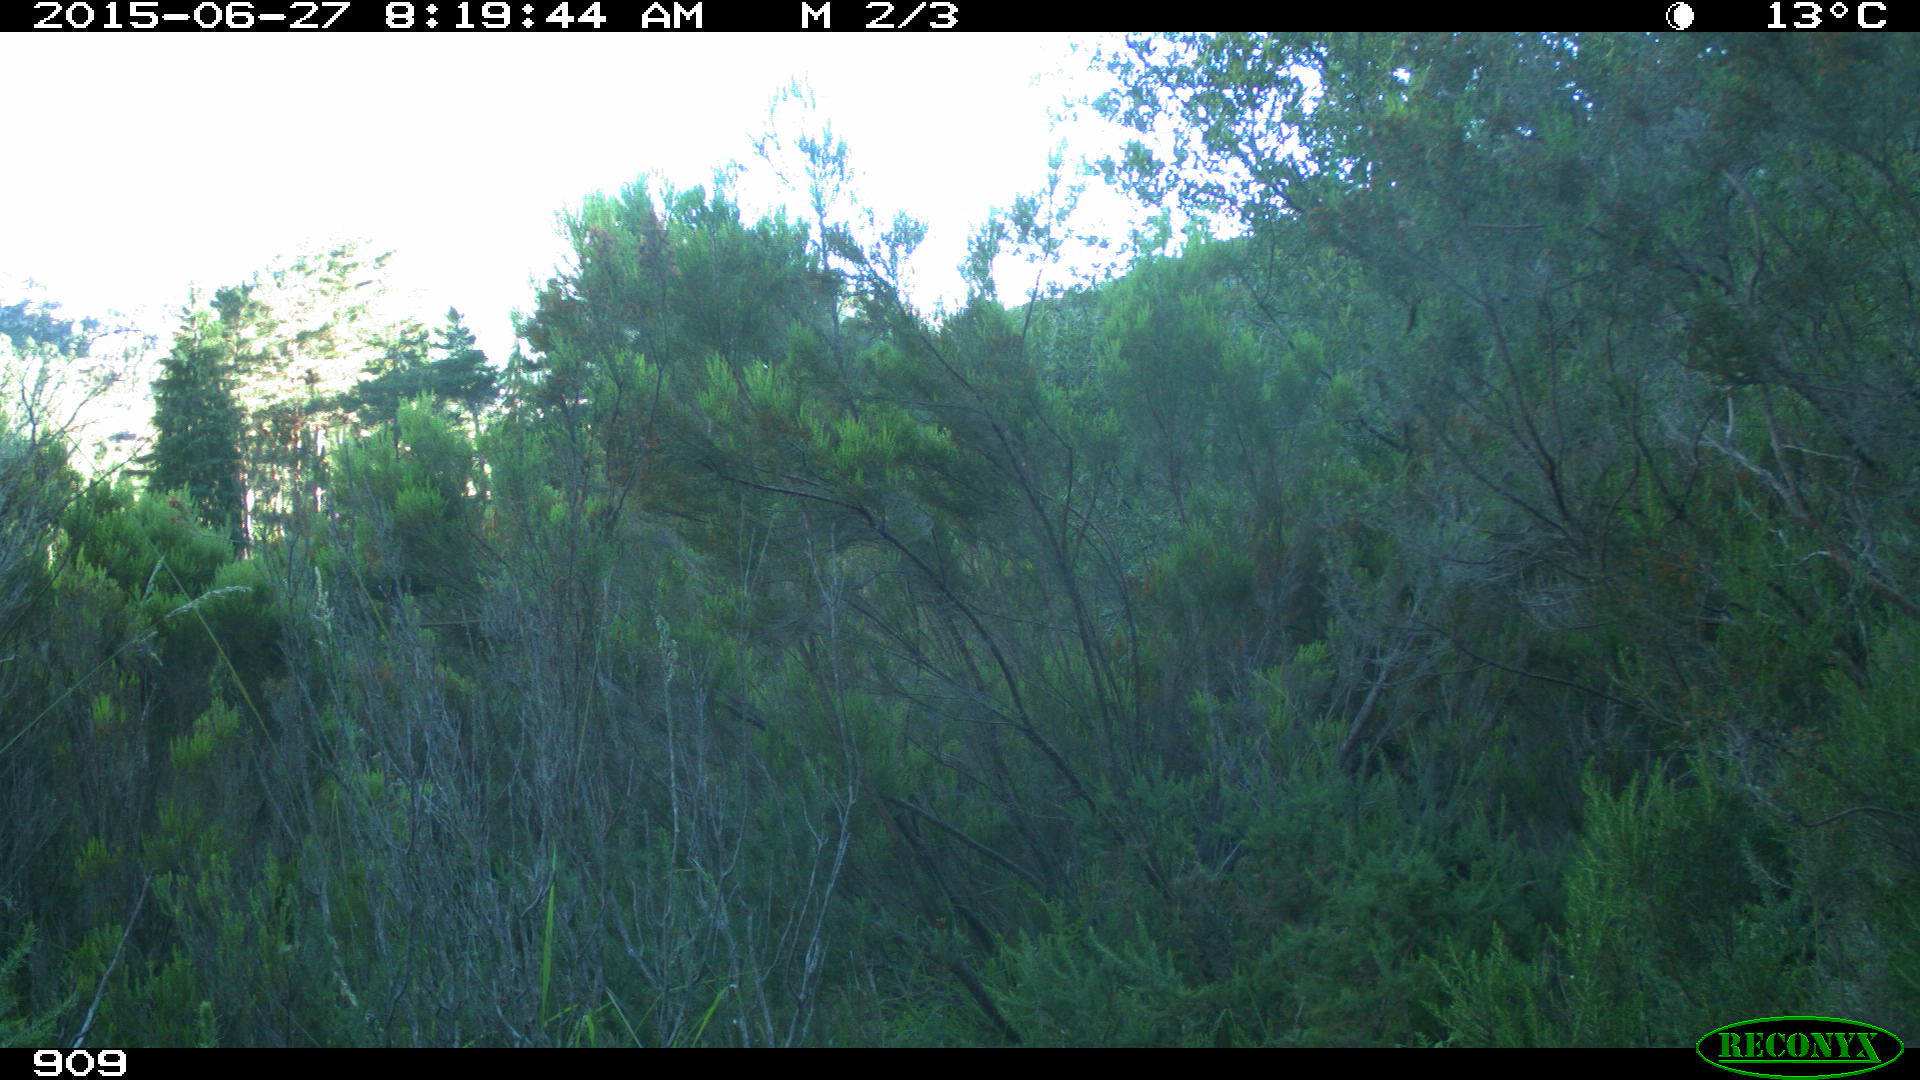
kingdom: Animalia
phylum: Chordata
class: Mammalia
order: Artiodactyla
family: Bovidae
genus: Bos
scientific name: Bos taurus
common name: Domesticated cattle
